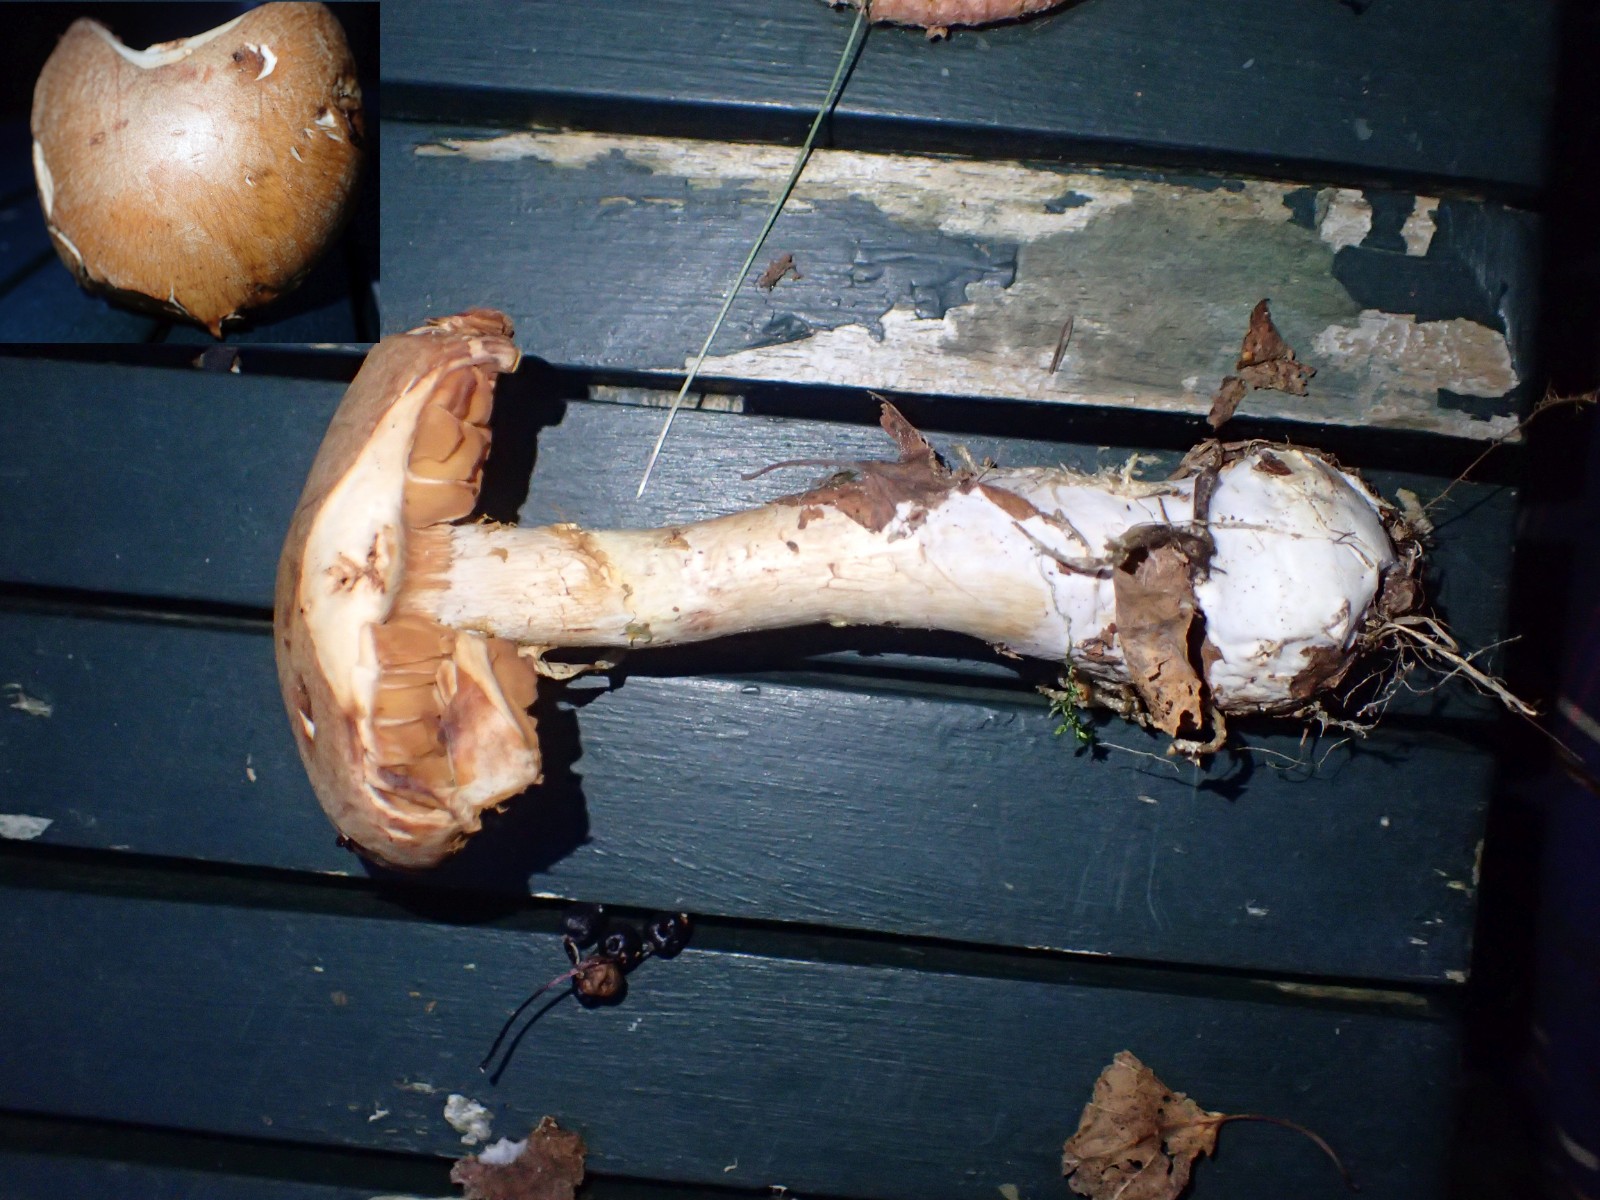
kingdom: Fungi
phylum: Basidiomycota
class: Agaricomycetes
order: Agaricales
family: Cortinariaceae
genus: Cortinarius
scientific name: Cortinarius
